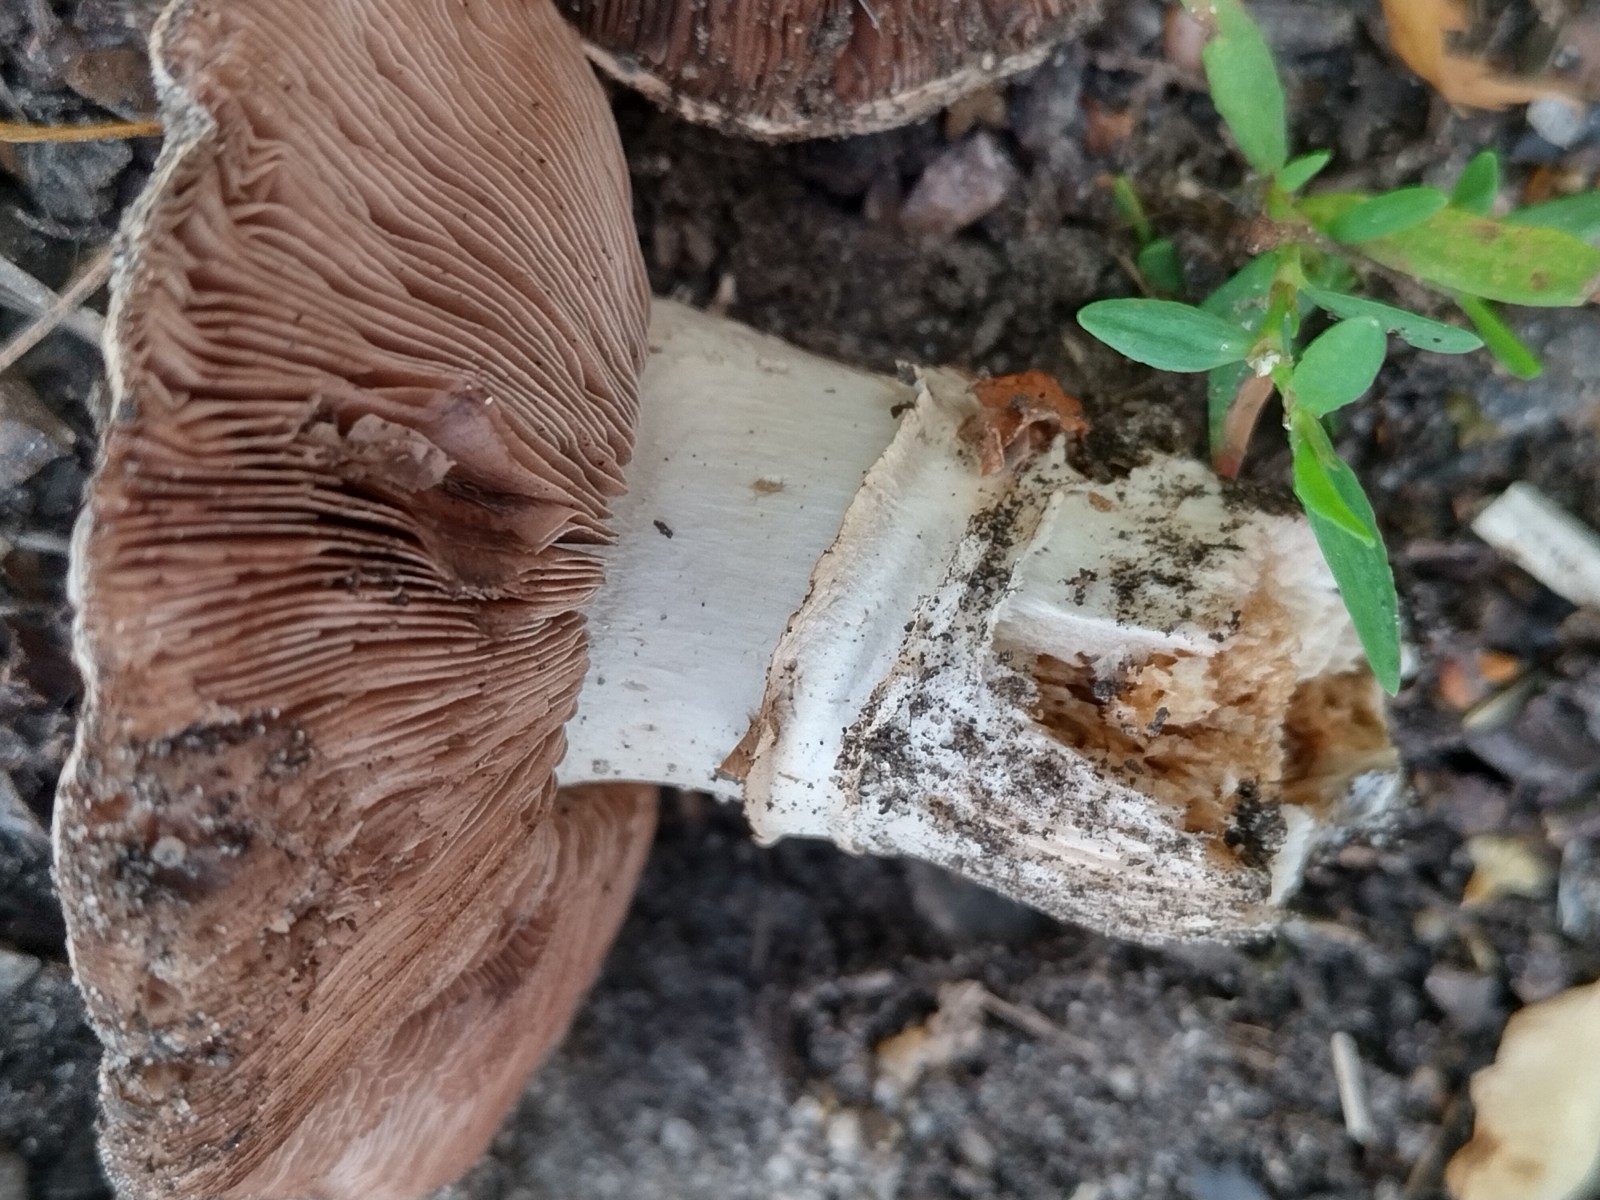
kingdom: Fungi
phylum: Basidiomycota
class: Agaricomycetes
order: Agaricales
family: Agaricaceae
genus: Agaricus
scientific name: Agaricus bitorquis
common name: vej-champignon
